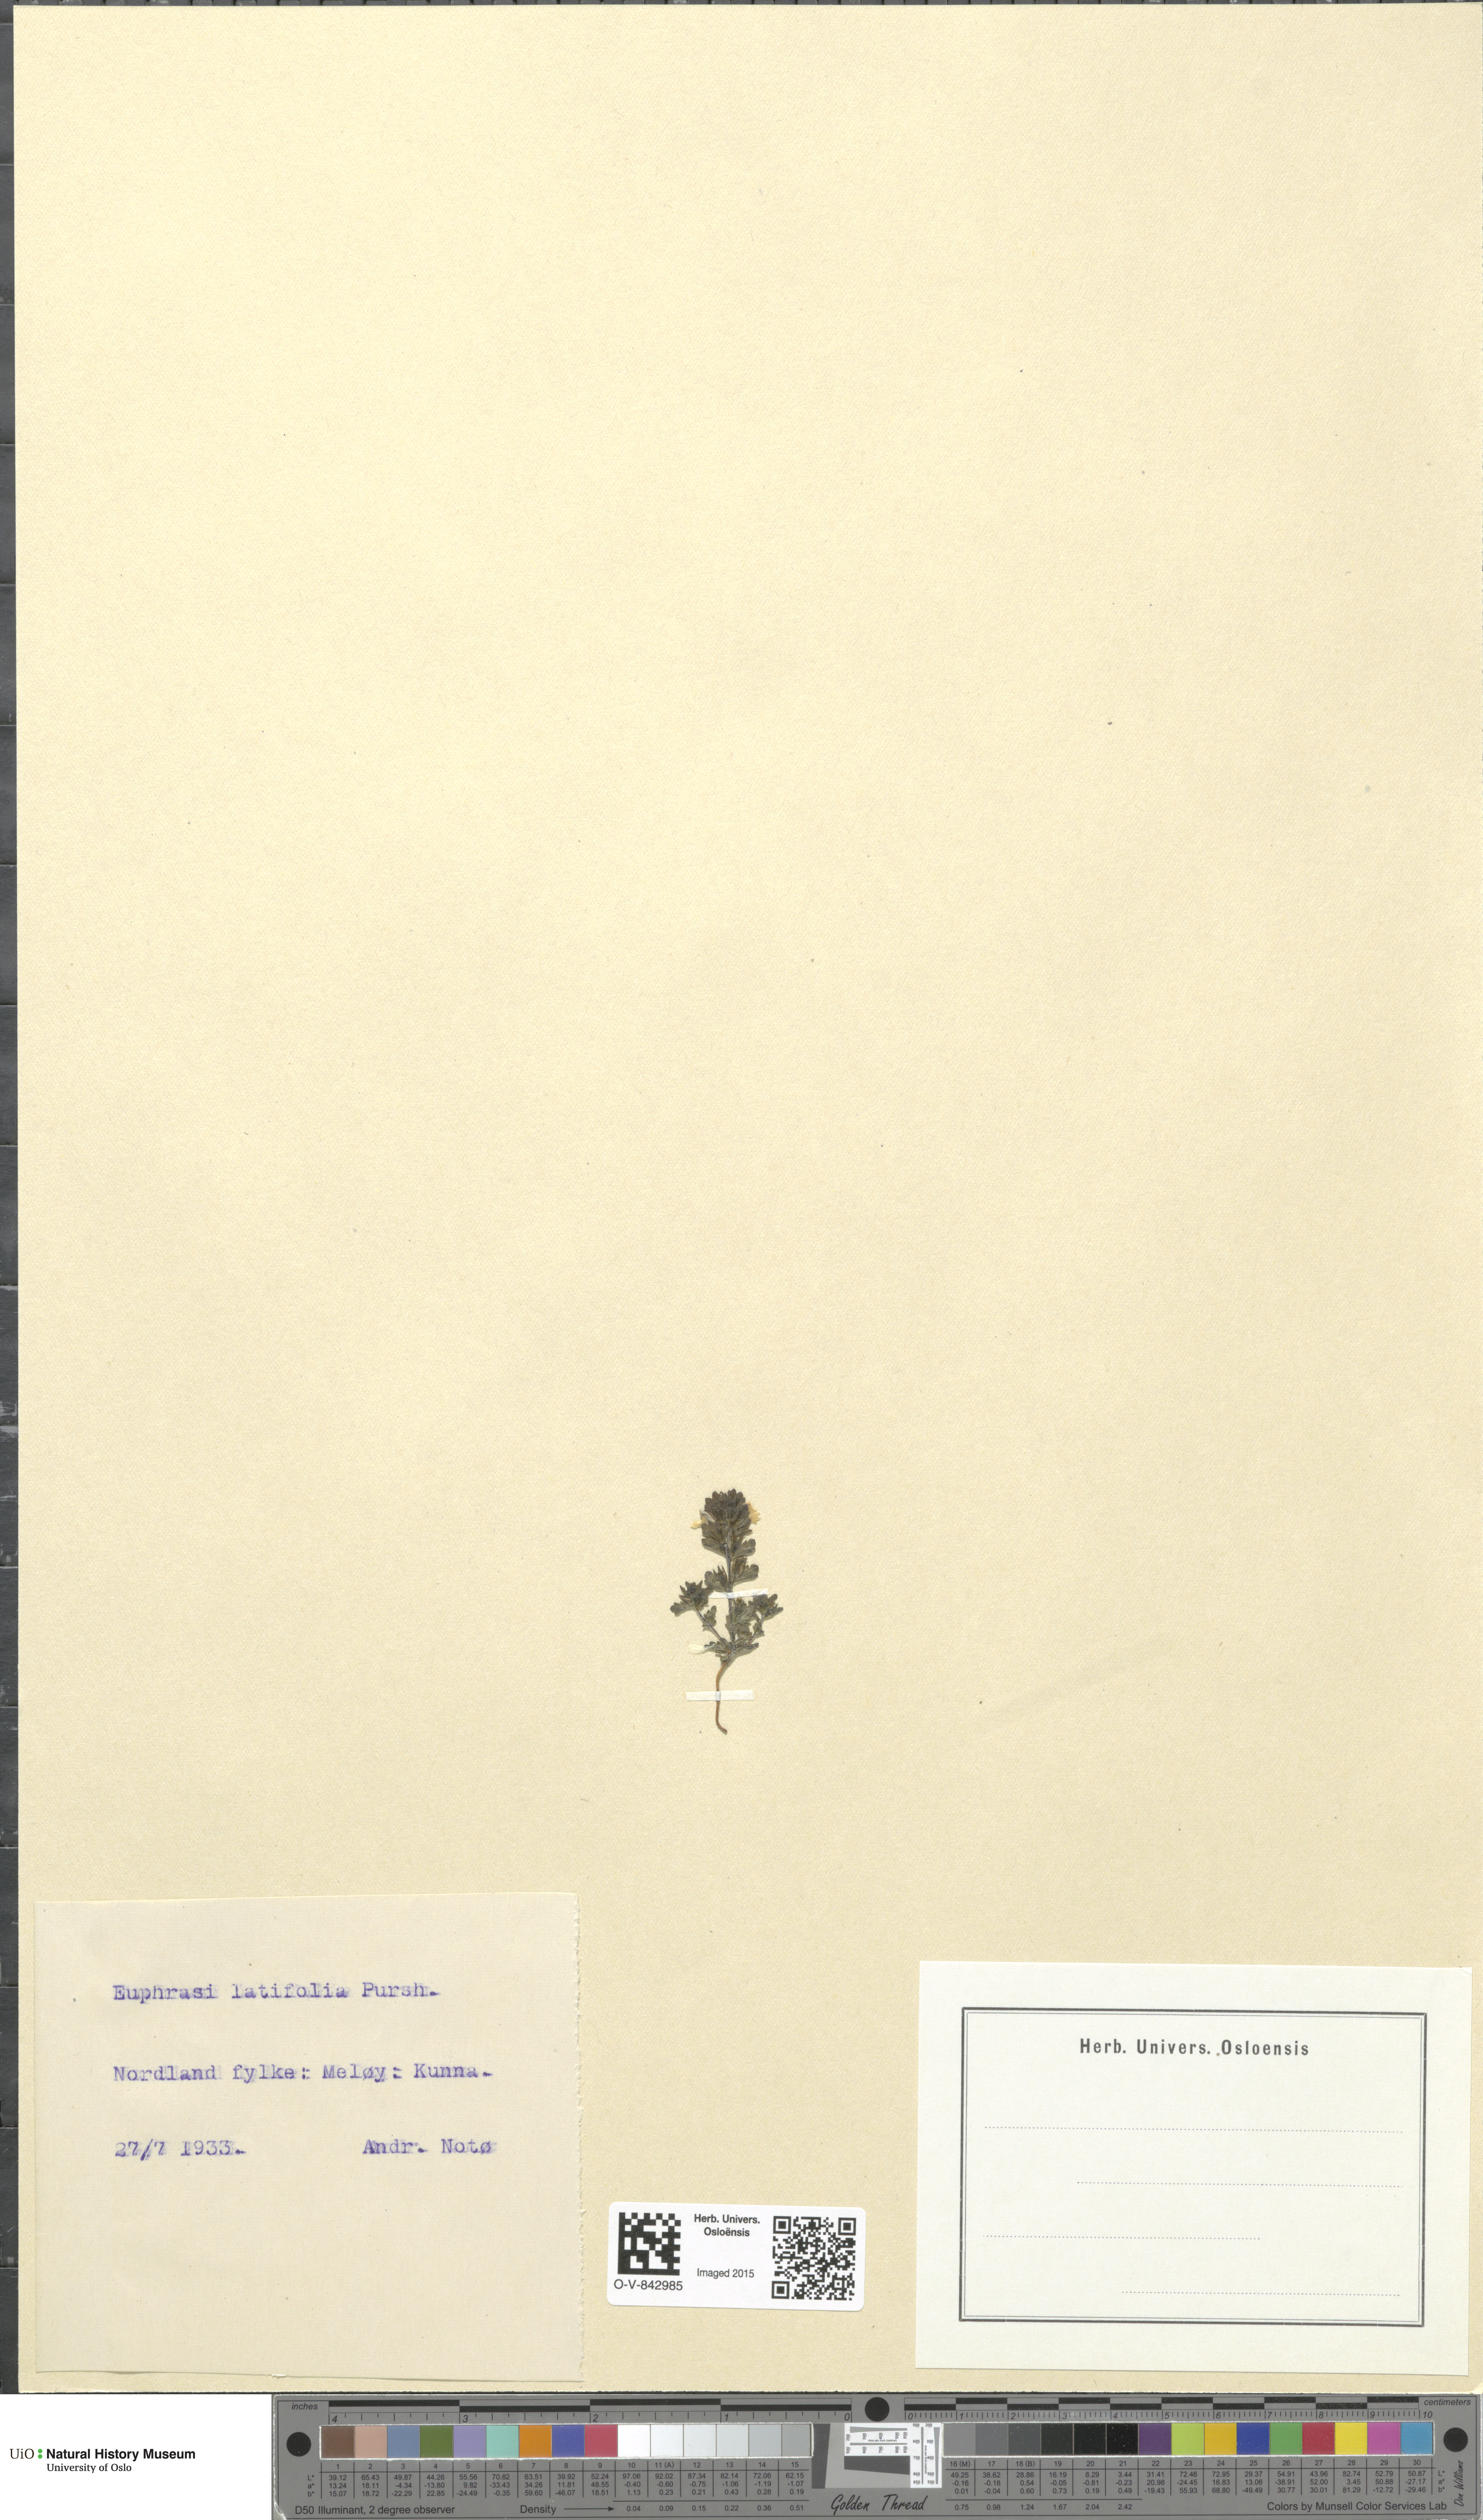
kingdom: Plantae
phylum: Tracheophyta
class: Magnoliopsida
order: Lamiales
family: Orobanchaceae
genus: Euphrasia
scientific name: Euphrasia wettsteinii
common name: Wettstein's eyebright
